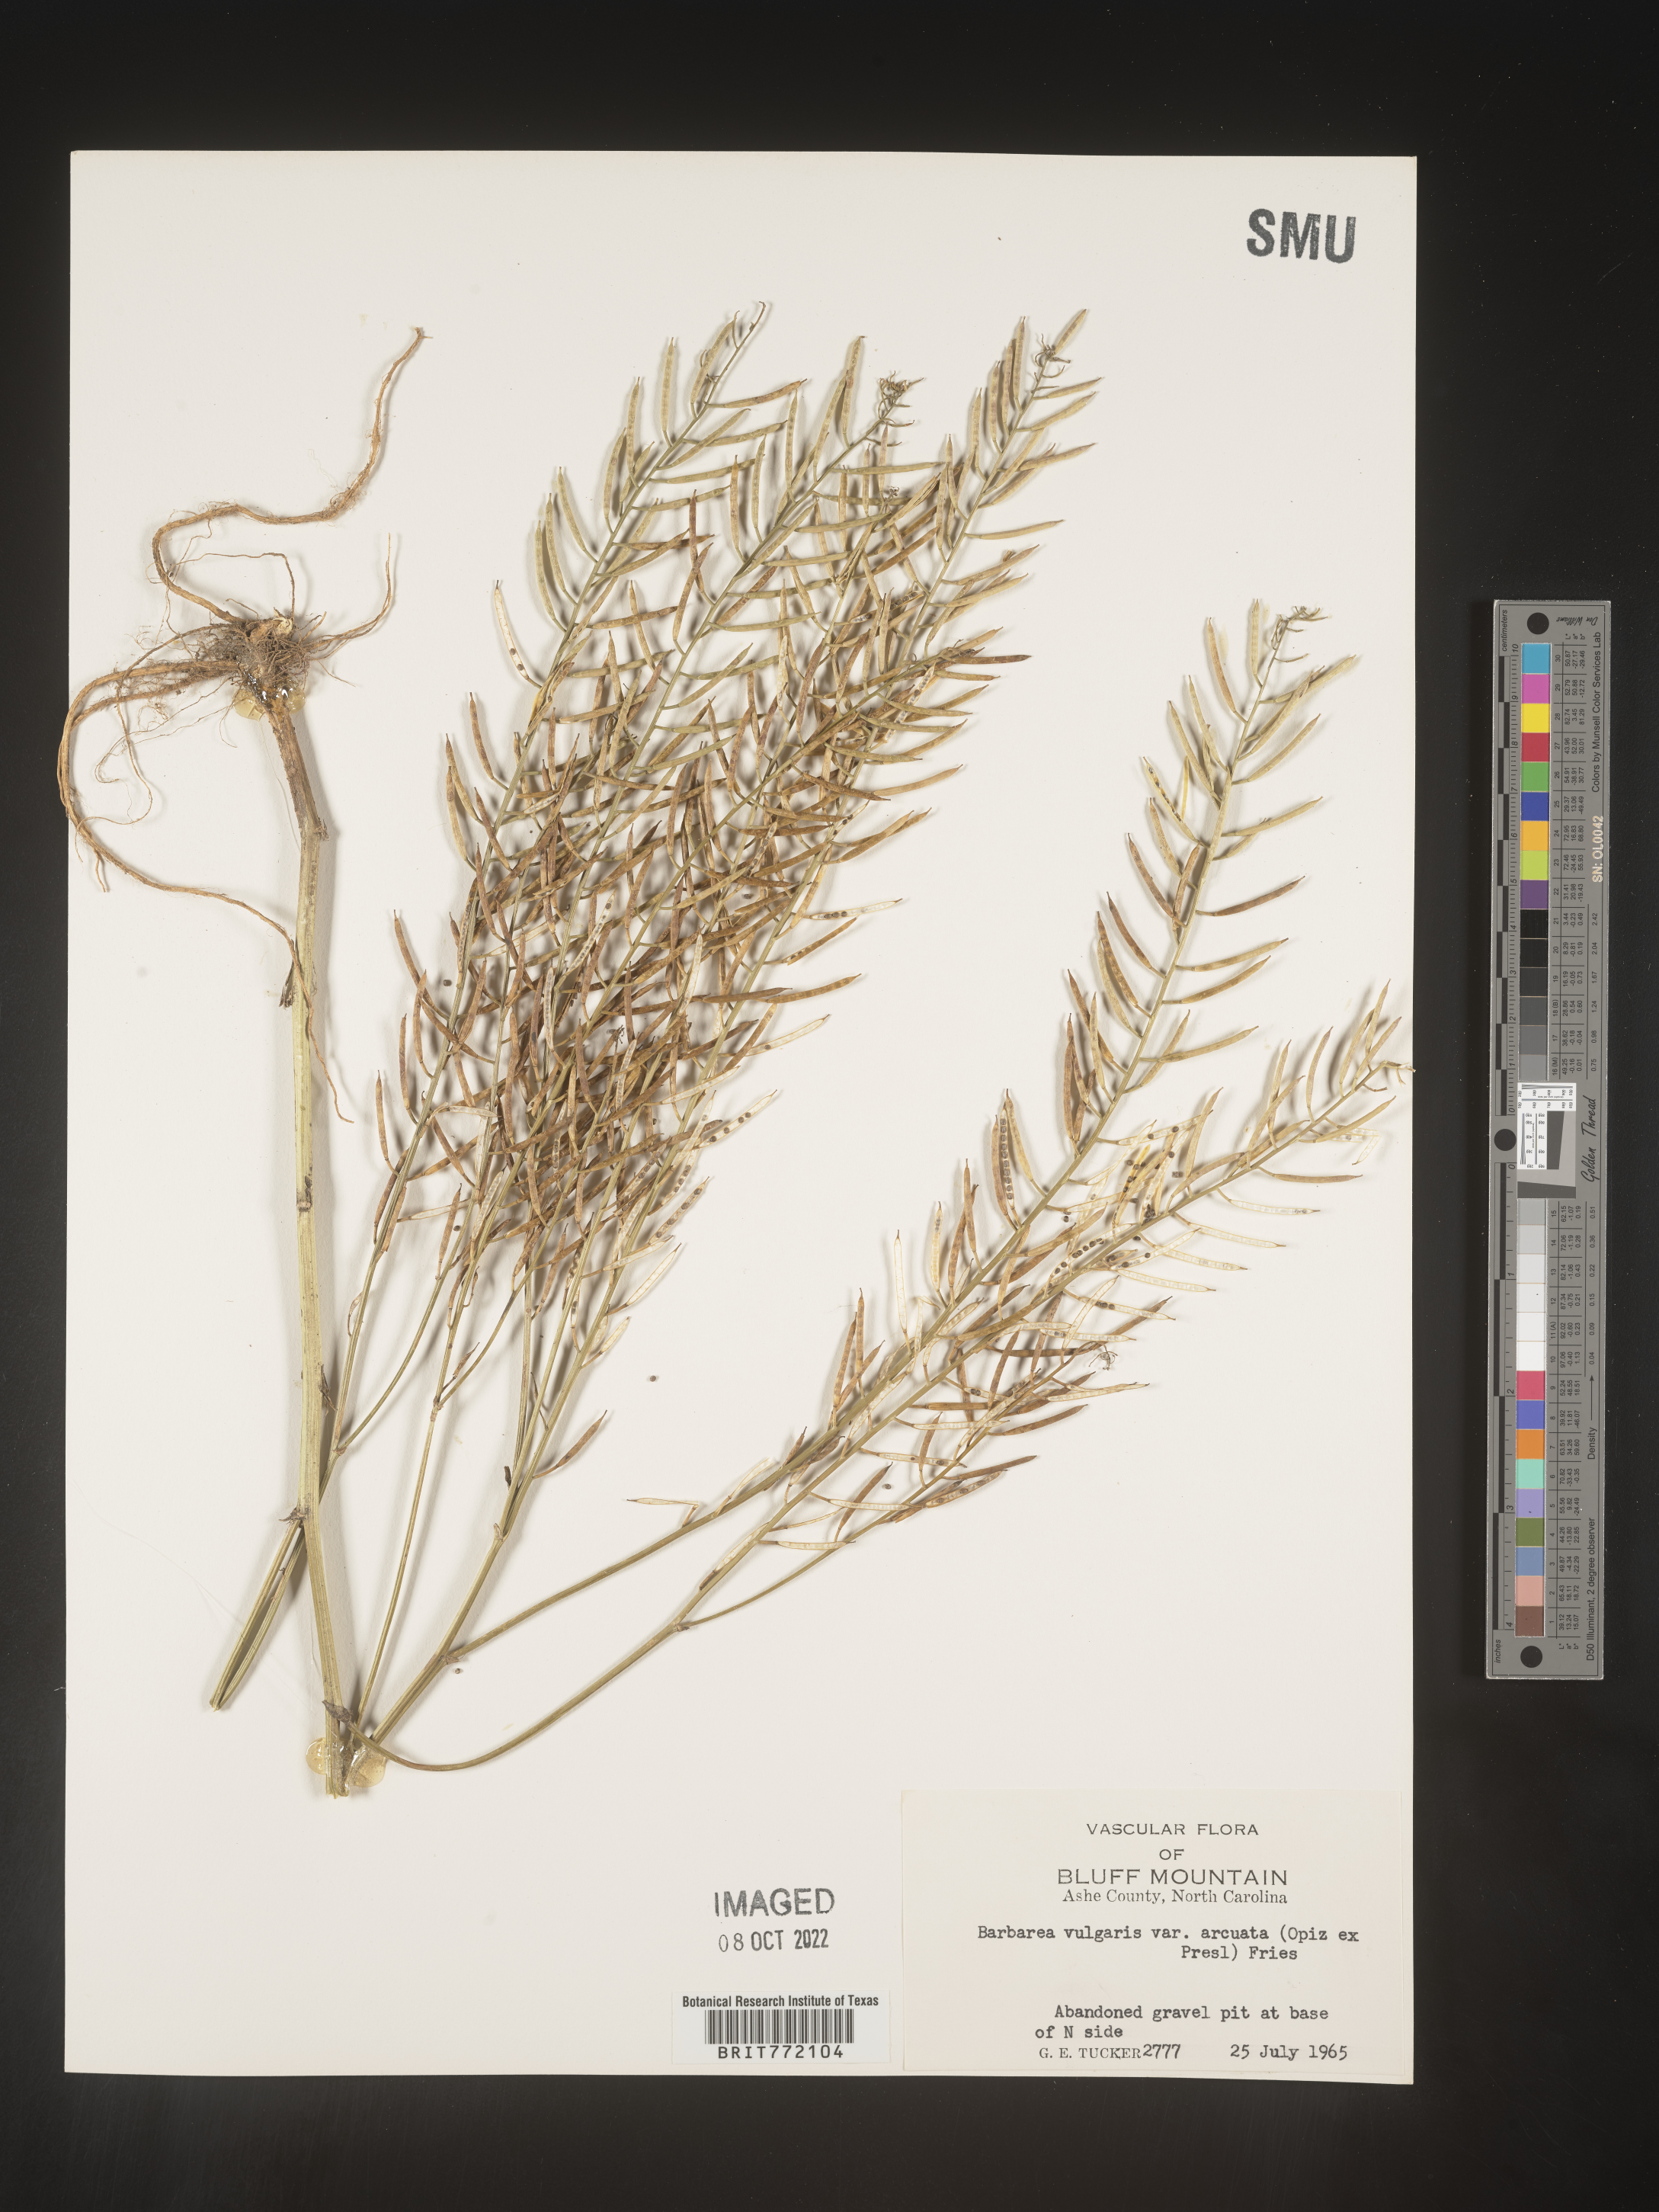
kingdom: Plantae
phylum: Tracheophyta
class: Magnoliopsida
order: Brassicales
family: Brassicaceae
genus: Barbarea
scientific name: Barbarea vulgaris
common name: Cressy-greens
